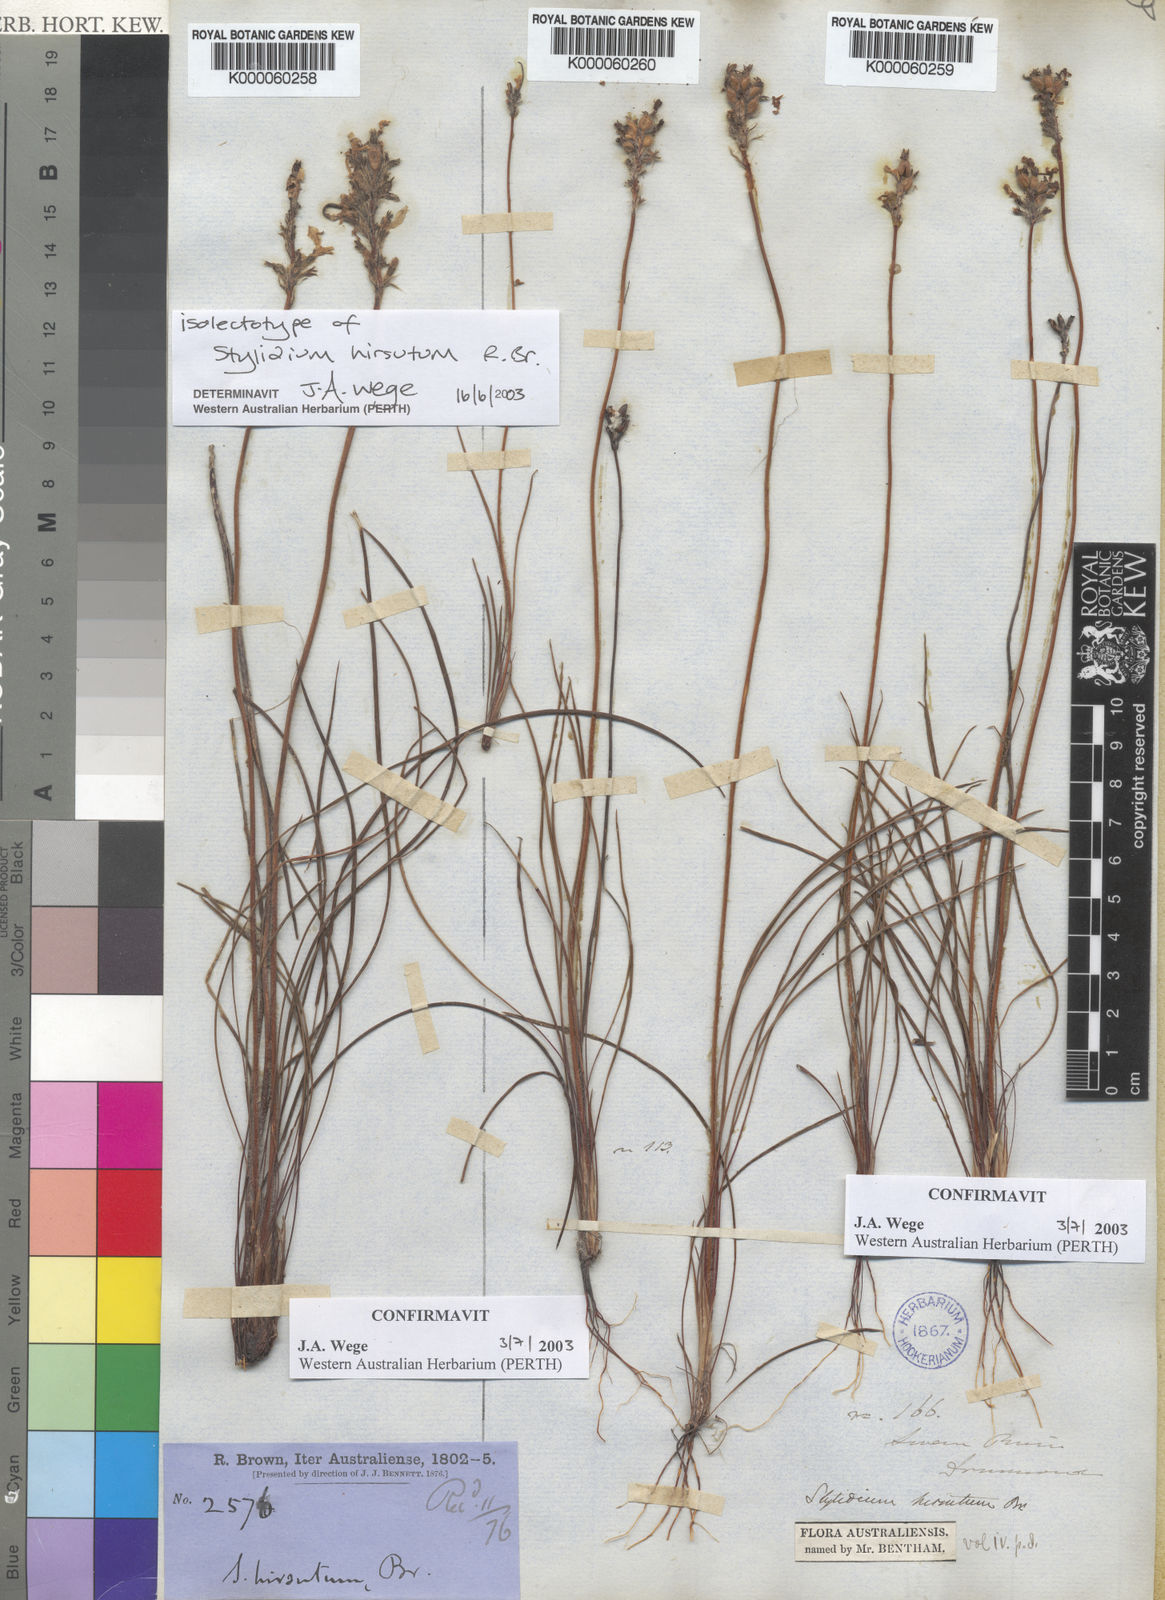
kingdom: Plantae
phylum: Tracheophyta
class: Magnoliopsida
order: Asterales
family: Stylidiaceae
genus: Stylidium
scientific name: Stylidium hirsutum
